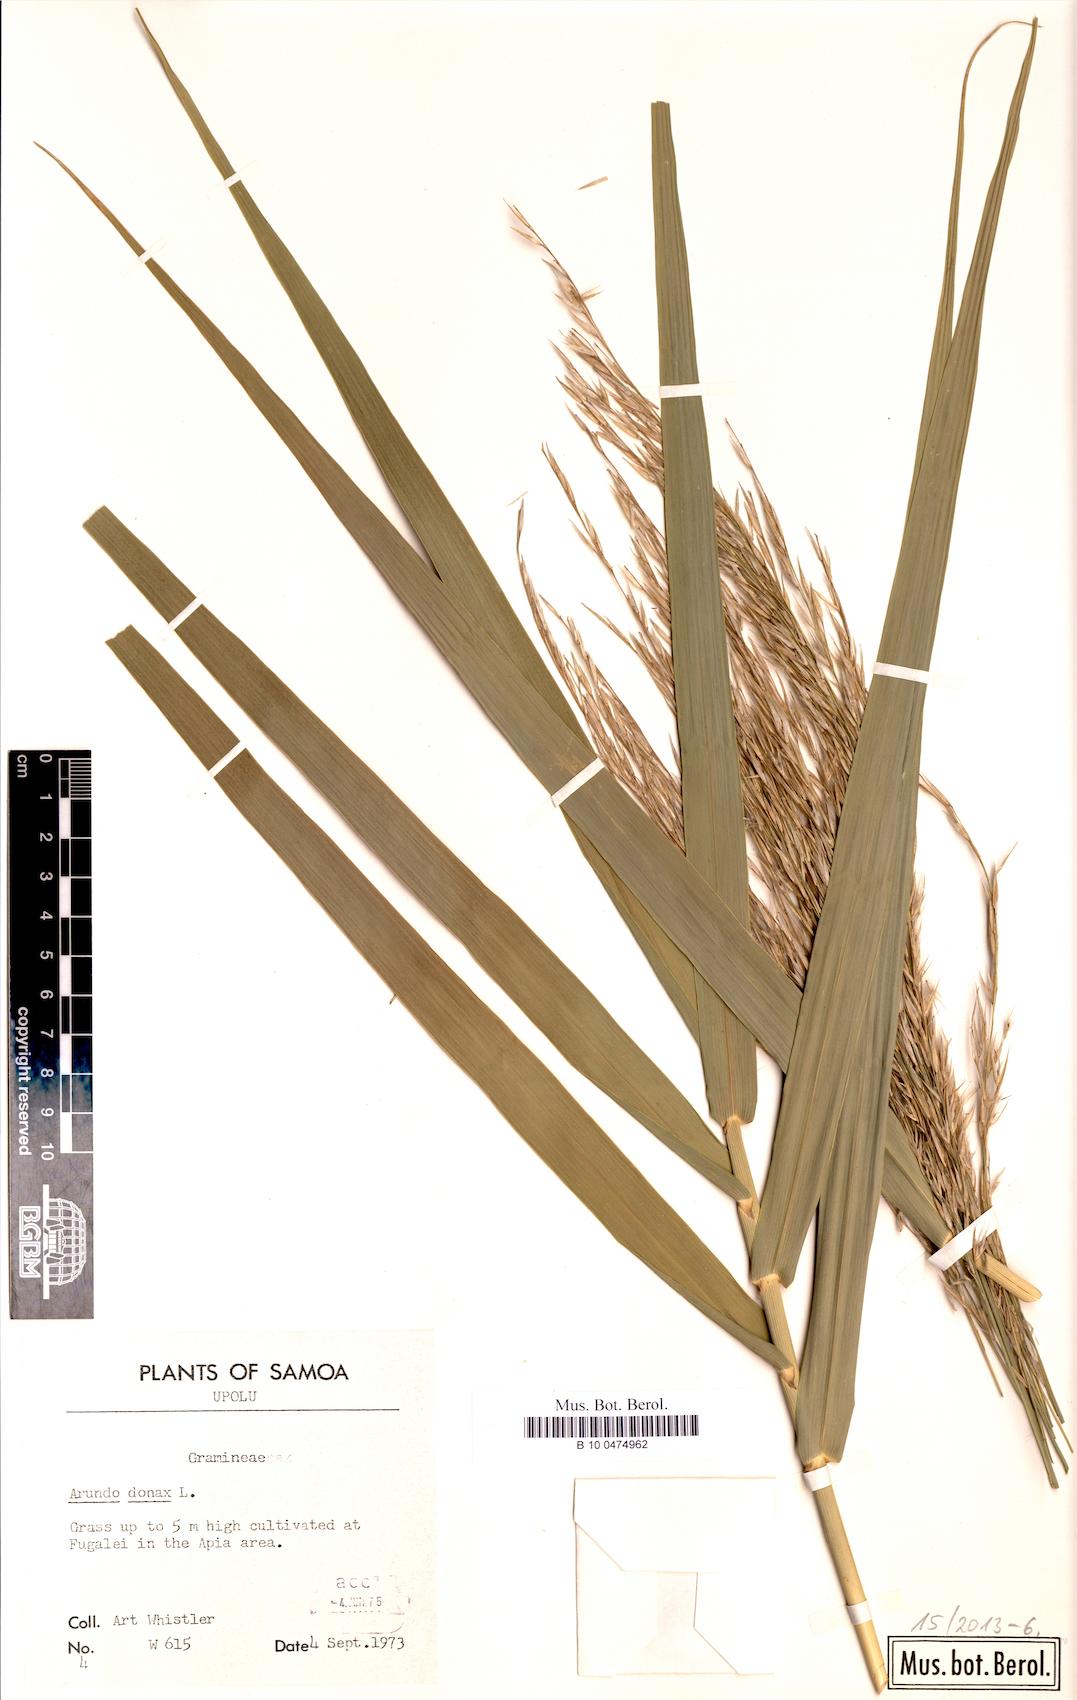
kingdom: Plantae
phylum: Tracheophyta
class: Liliopsida
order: Poales
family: Poaceae
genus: Arundo
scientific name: Arundo donax
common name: Giant reed
